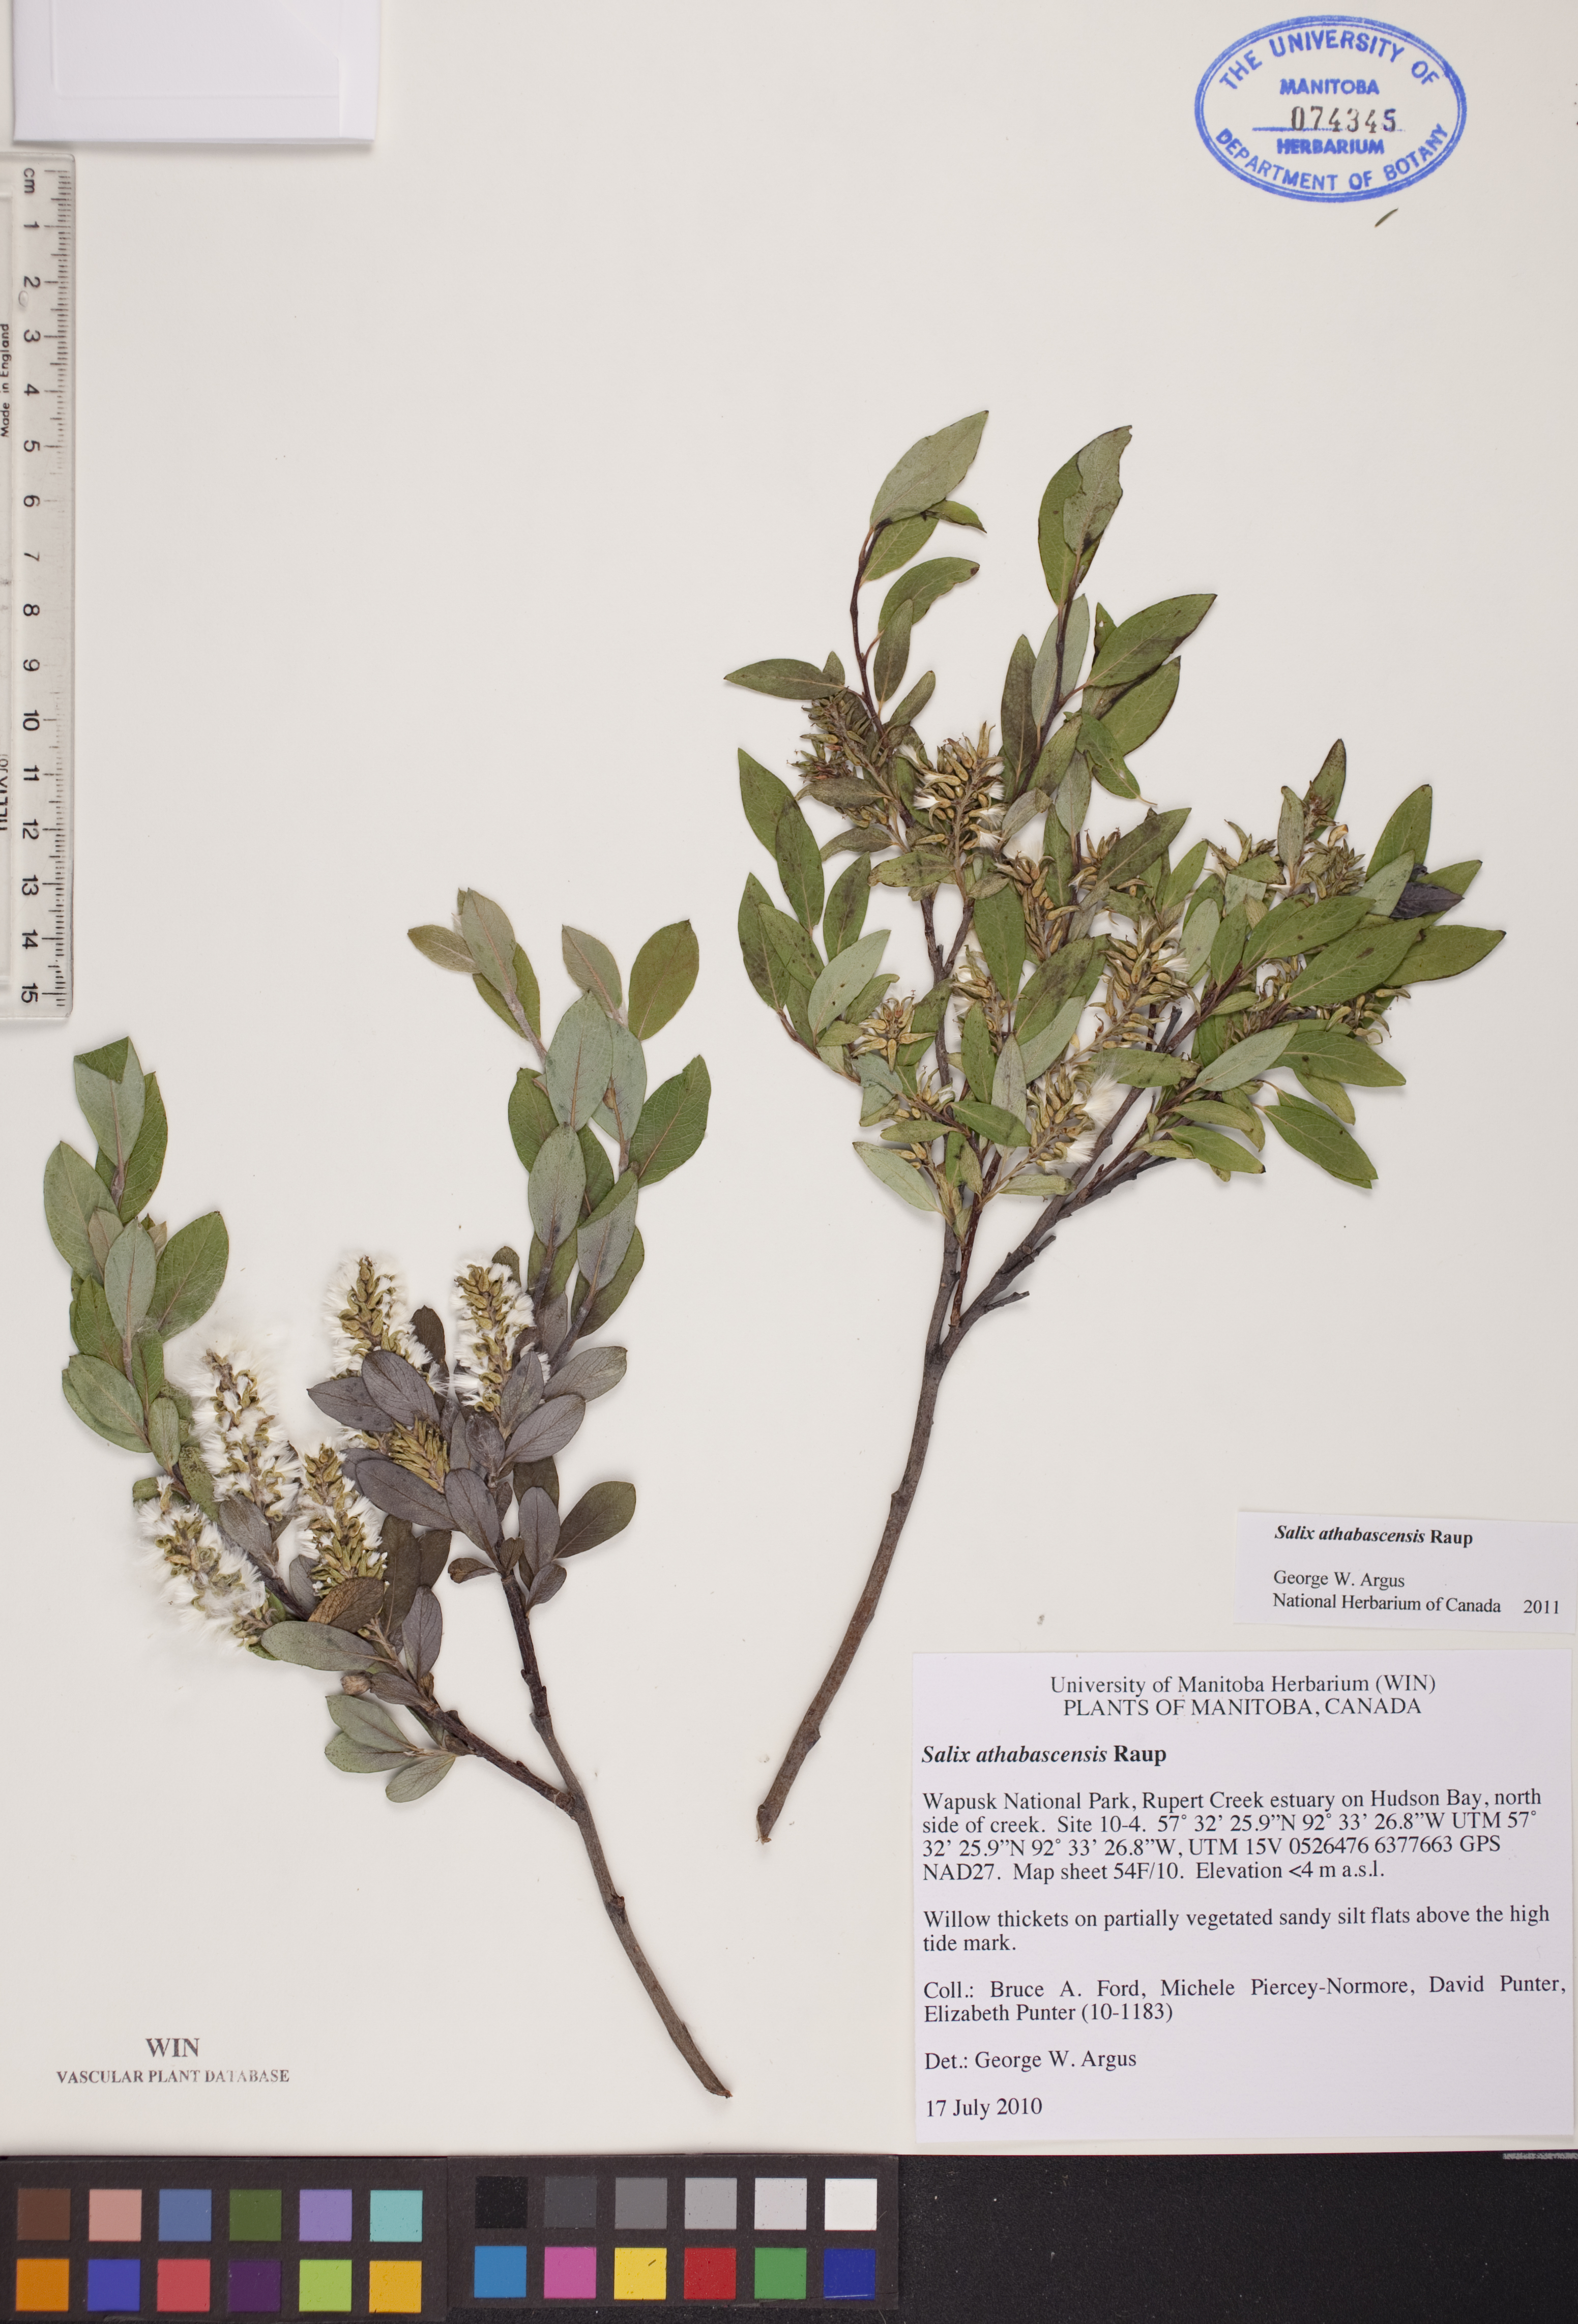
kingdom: Plantae
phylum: Tracheophyta
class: Magnoliopsida
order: Malpighiales
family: Salicaceae
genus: Salix
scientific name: Salix athabascensis
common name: Athabasca willow
